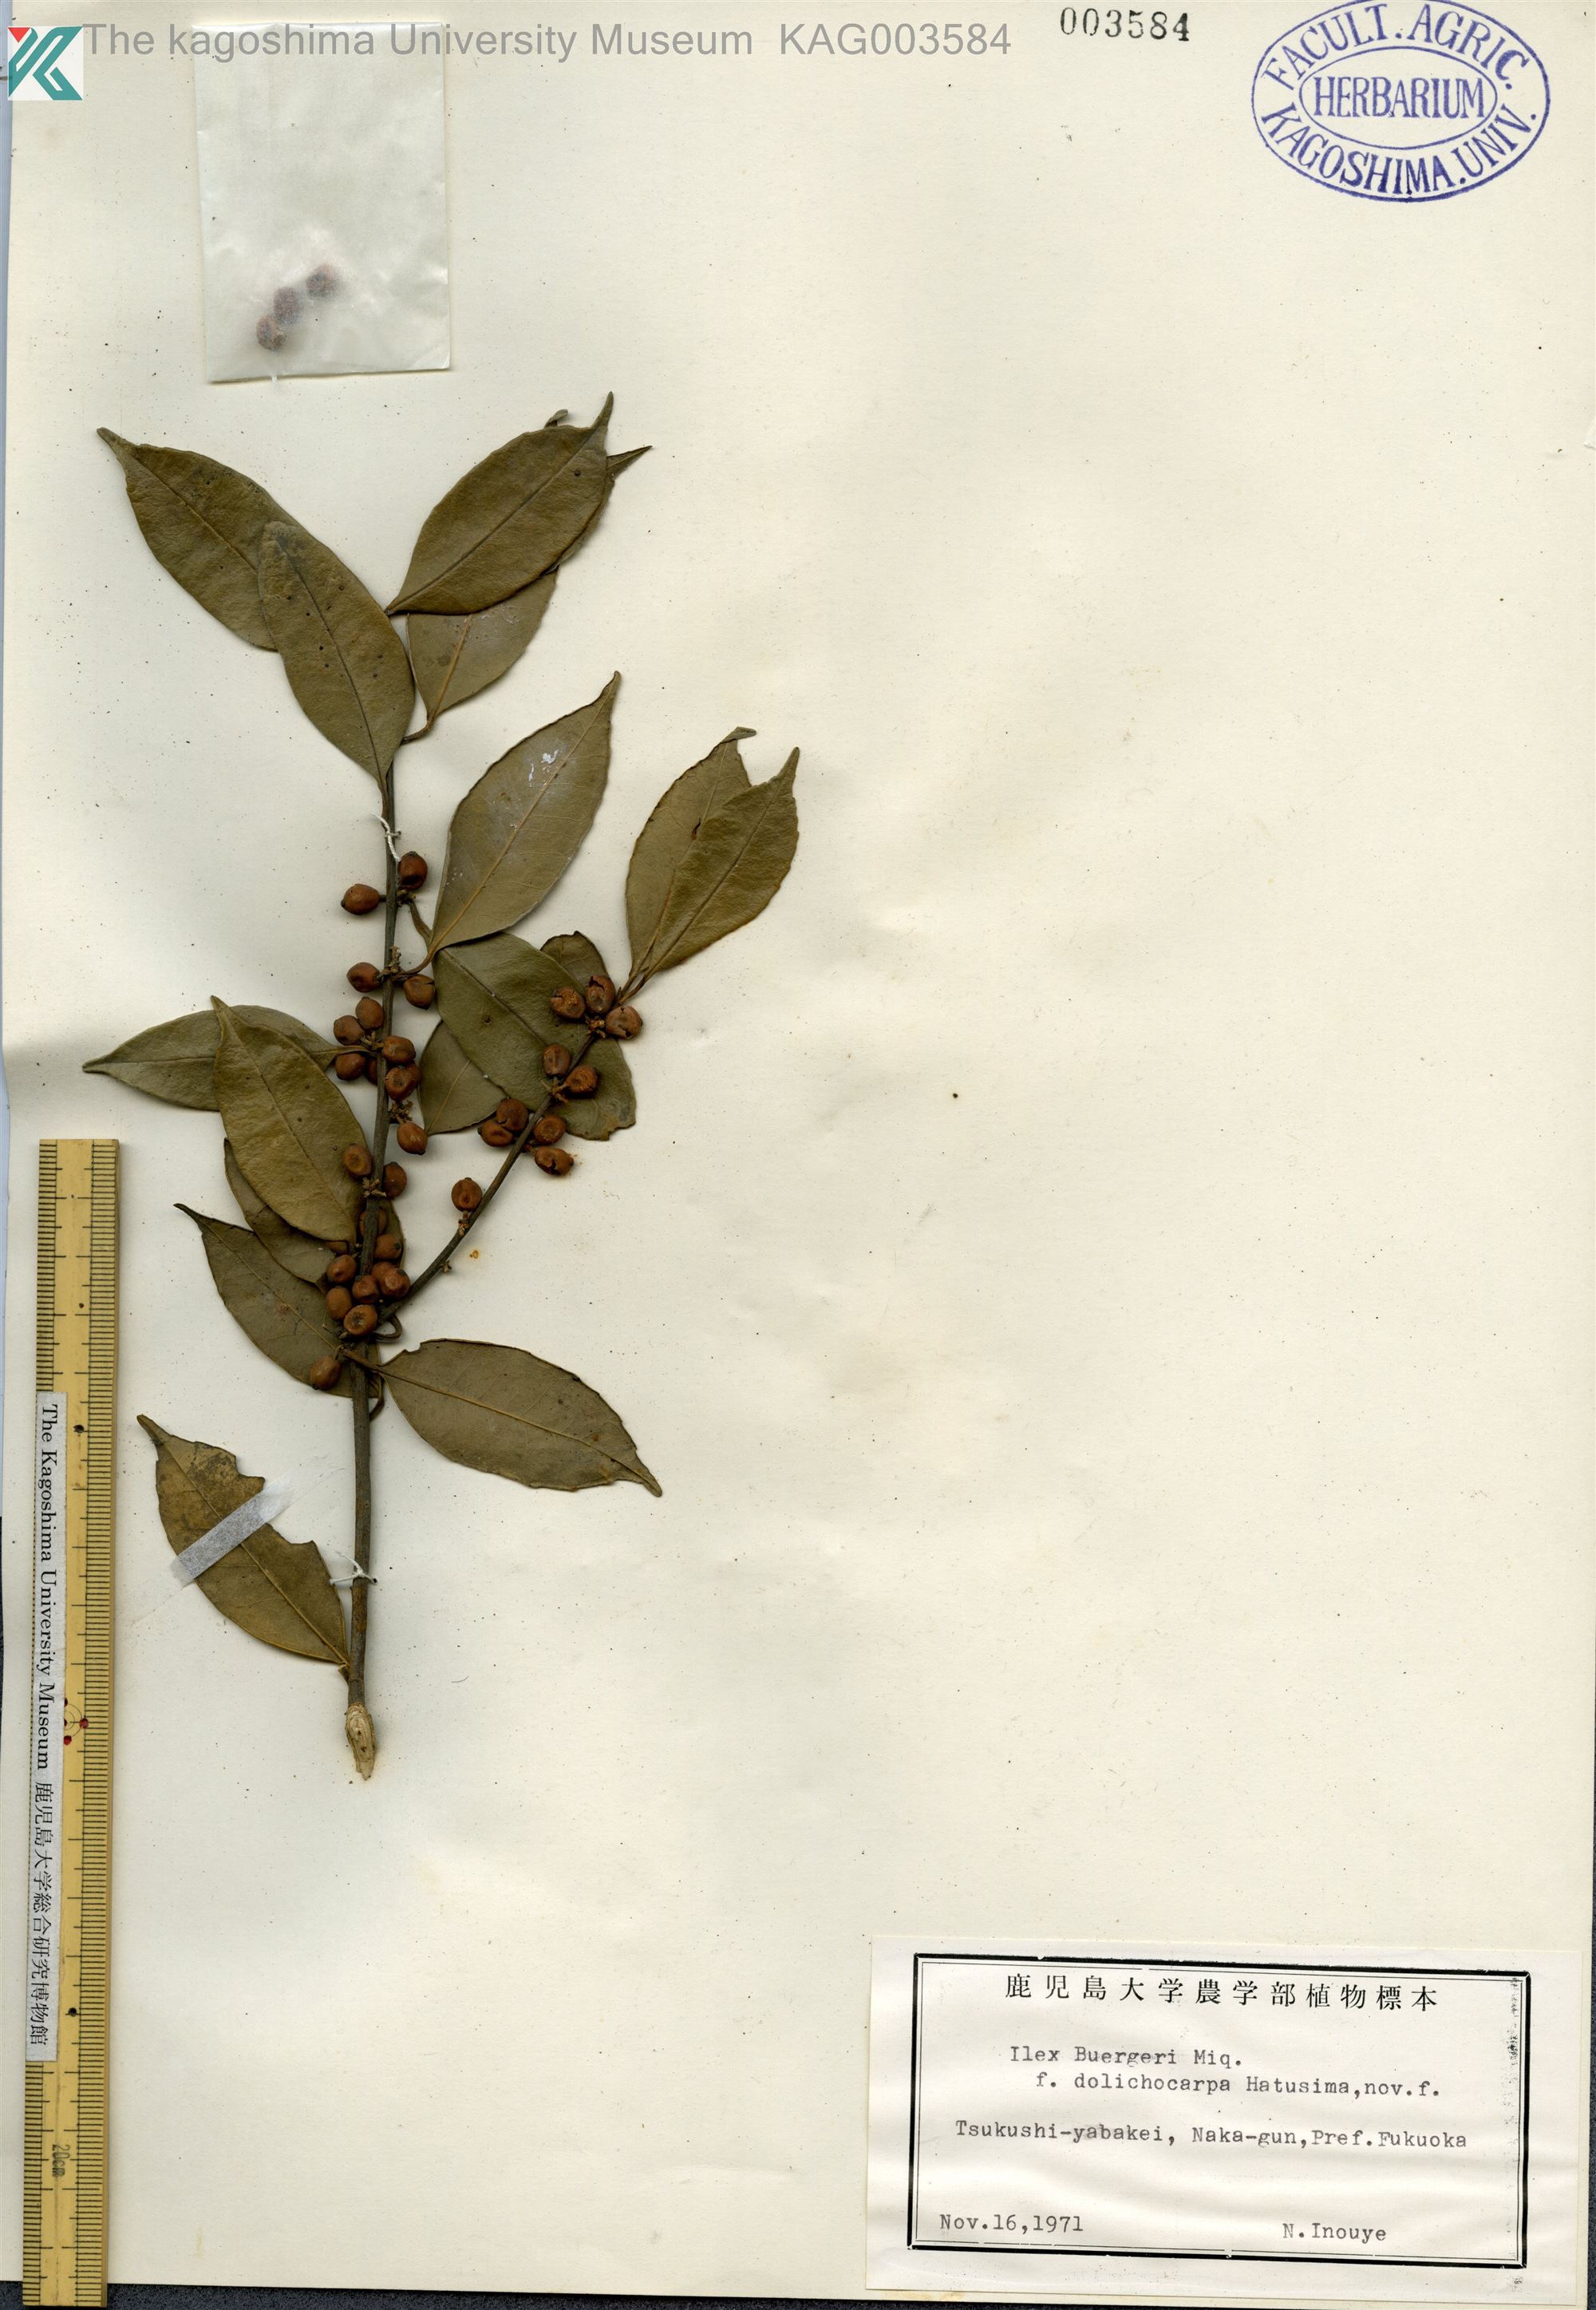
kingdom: Plantae
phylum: Tracheophyta
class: Magnoliopsida
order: Aquifoliales
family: Aquifoliaceae
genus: Ilex
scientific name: Ilex buergeri
